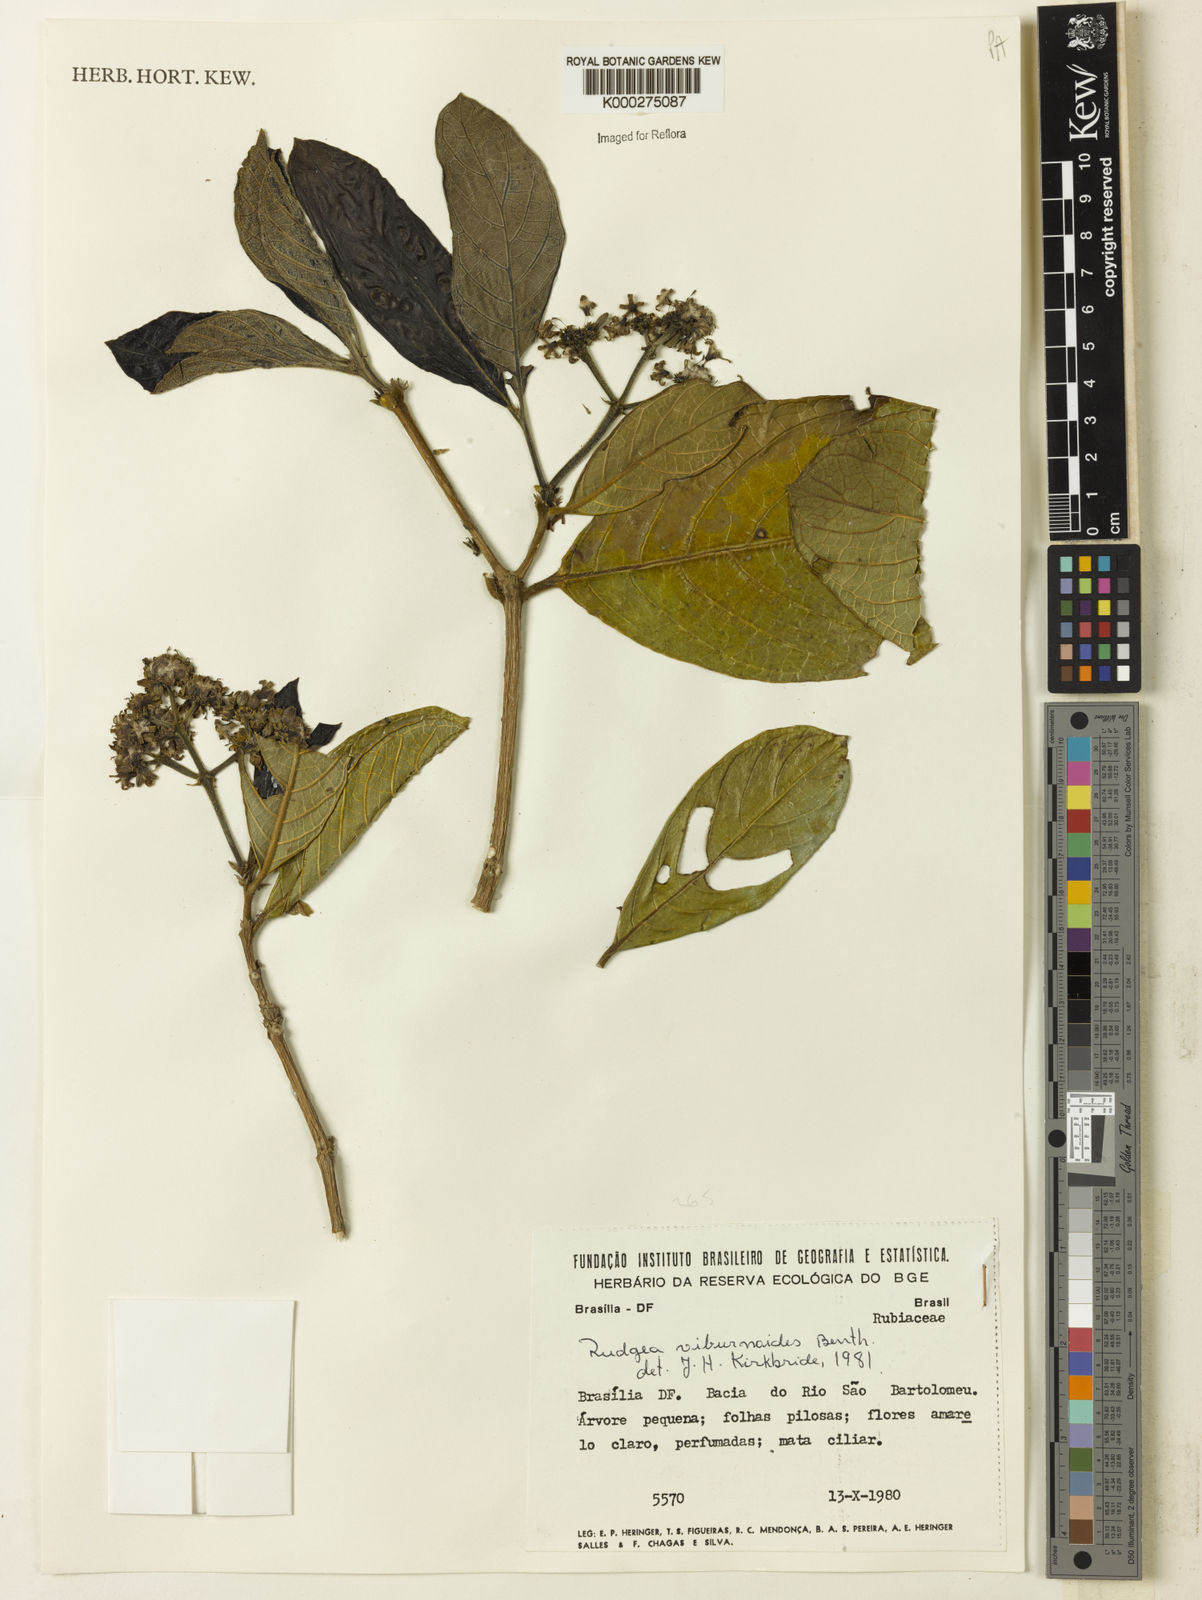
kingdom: Plantae
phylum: Tracheophyta
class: Magnoliopsida
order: Gentianales
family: Rubiaceae
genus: Rudgea
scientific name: Rudgea viburnoides
